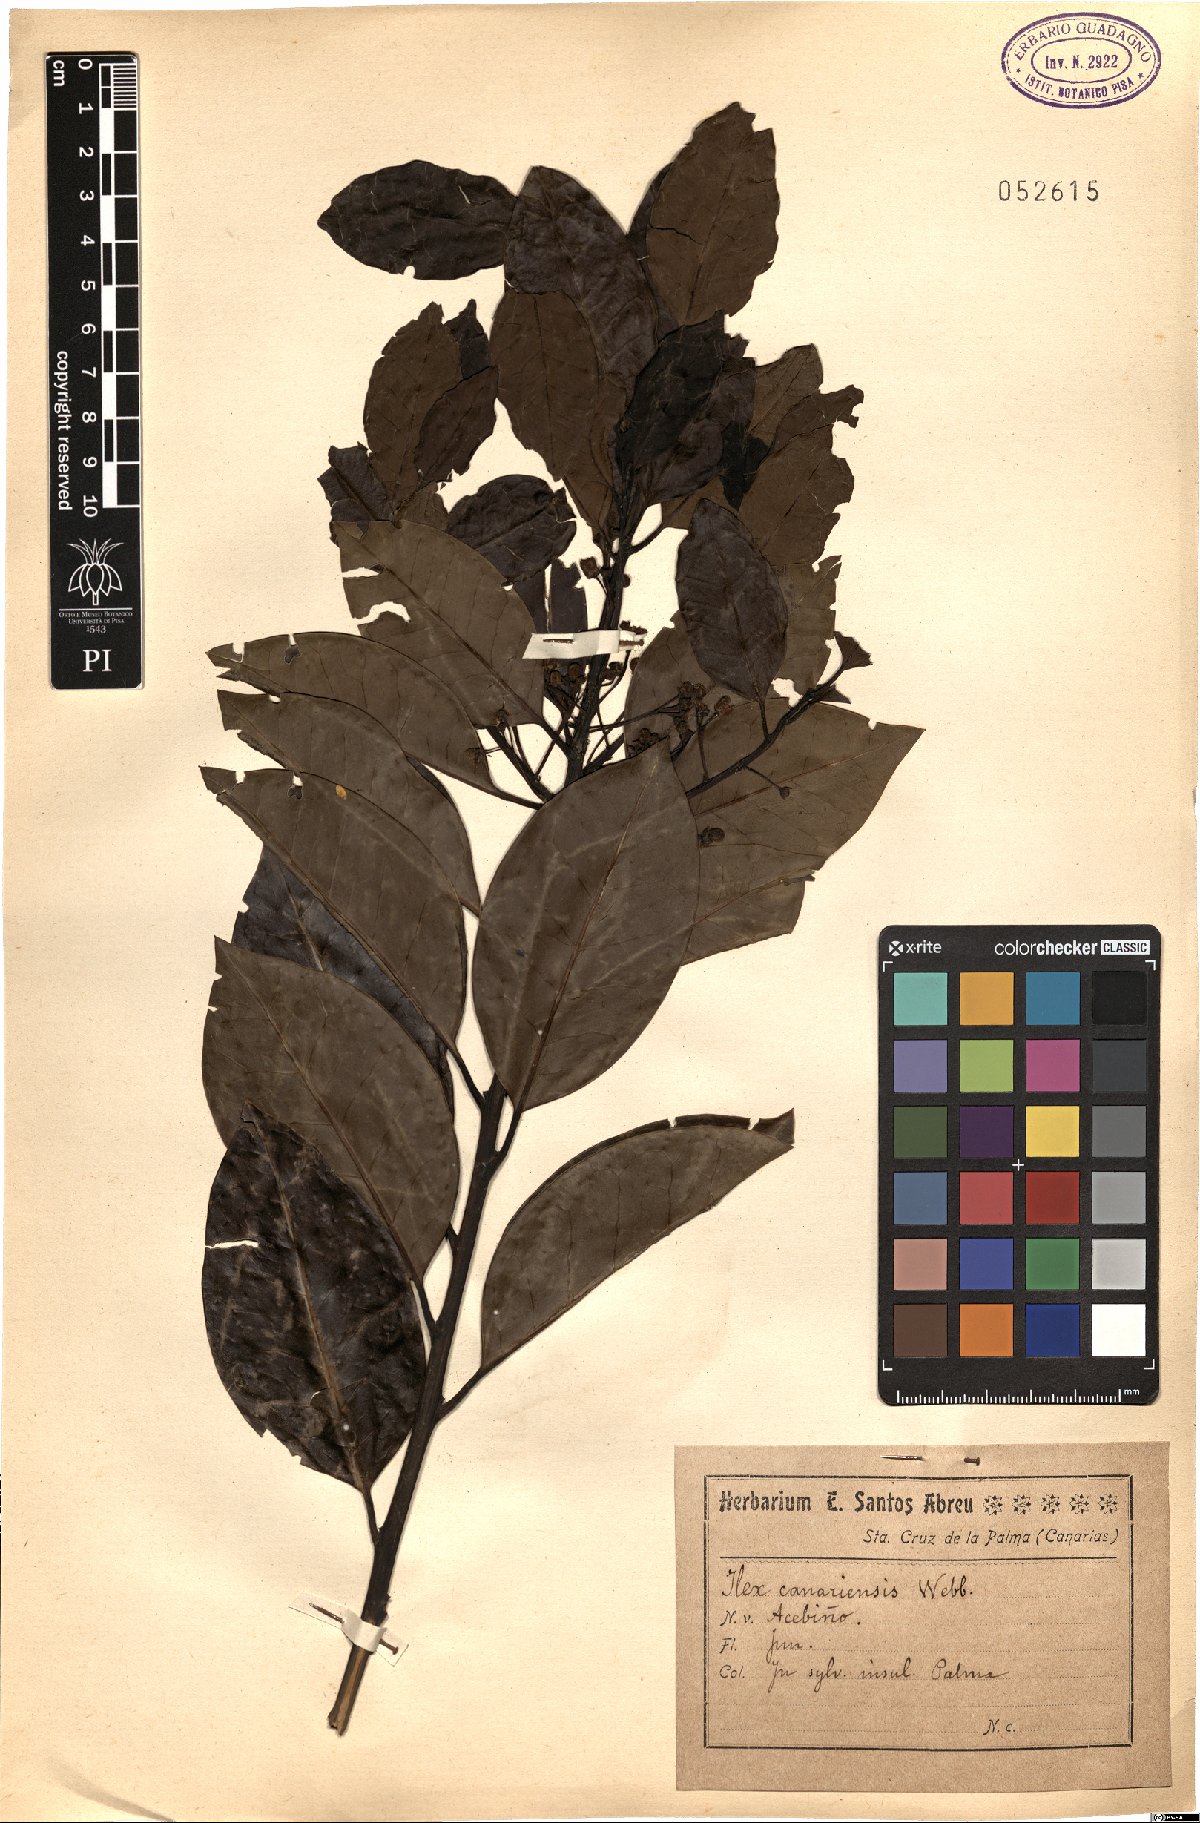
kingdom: Plantae
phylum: Tracheophyta
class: Magnoliopsida
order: Aquifoliales
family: Aquifoliaceae
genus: Ilex
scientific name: Ilex canariensis
